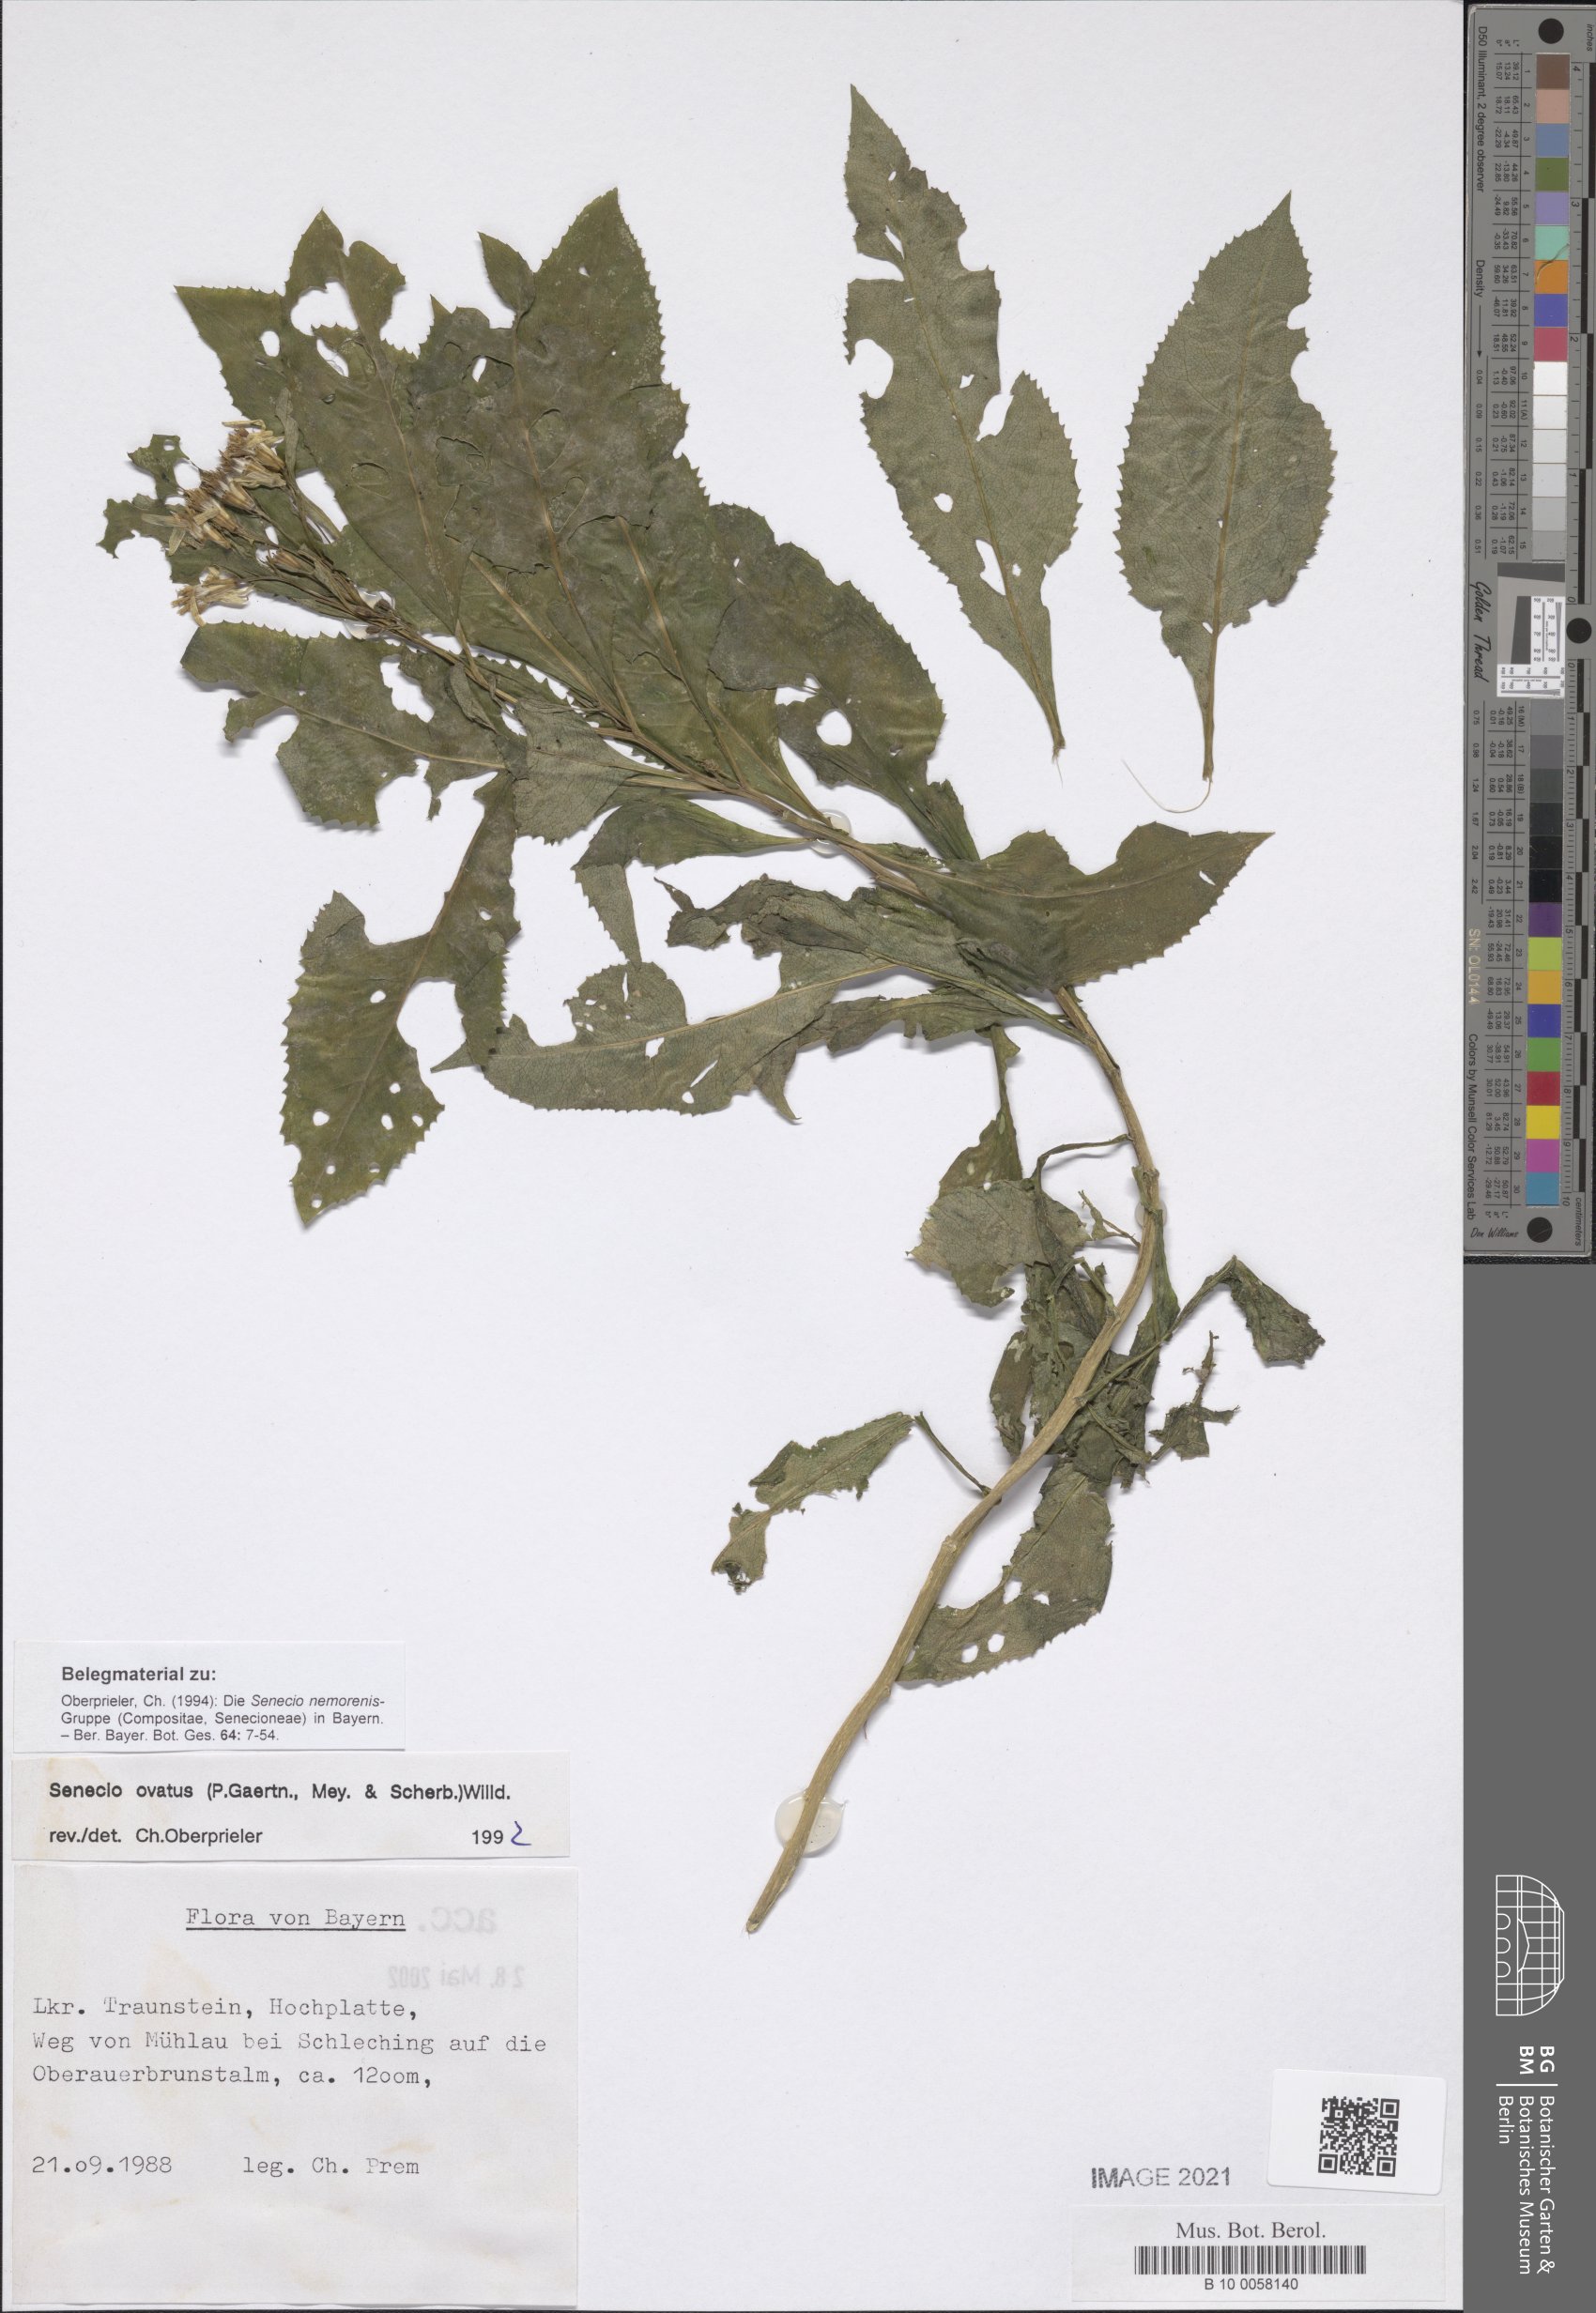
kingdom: Plantae
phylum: Tracheophyta
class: Magnoliopsida
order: Asterales
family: Asteraceae
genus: Senecio
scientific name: Senecio ovatus
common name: Wood ragwort
